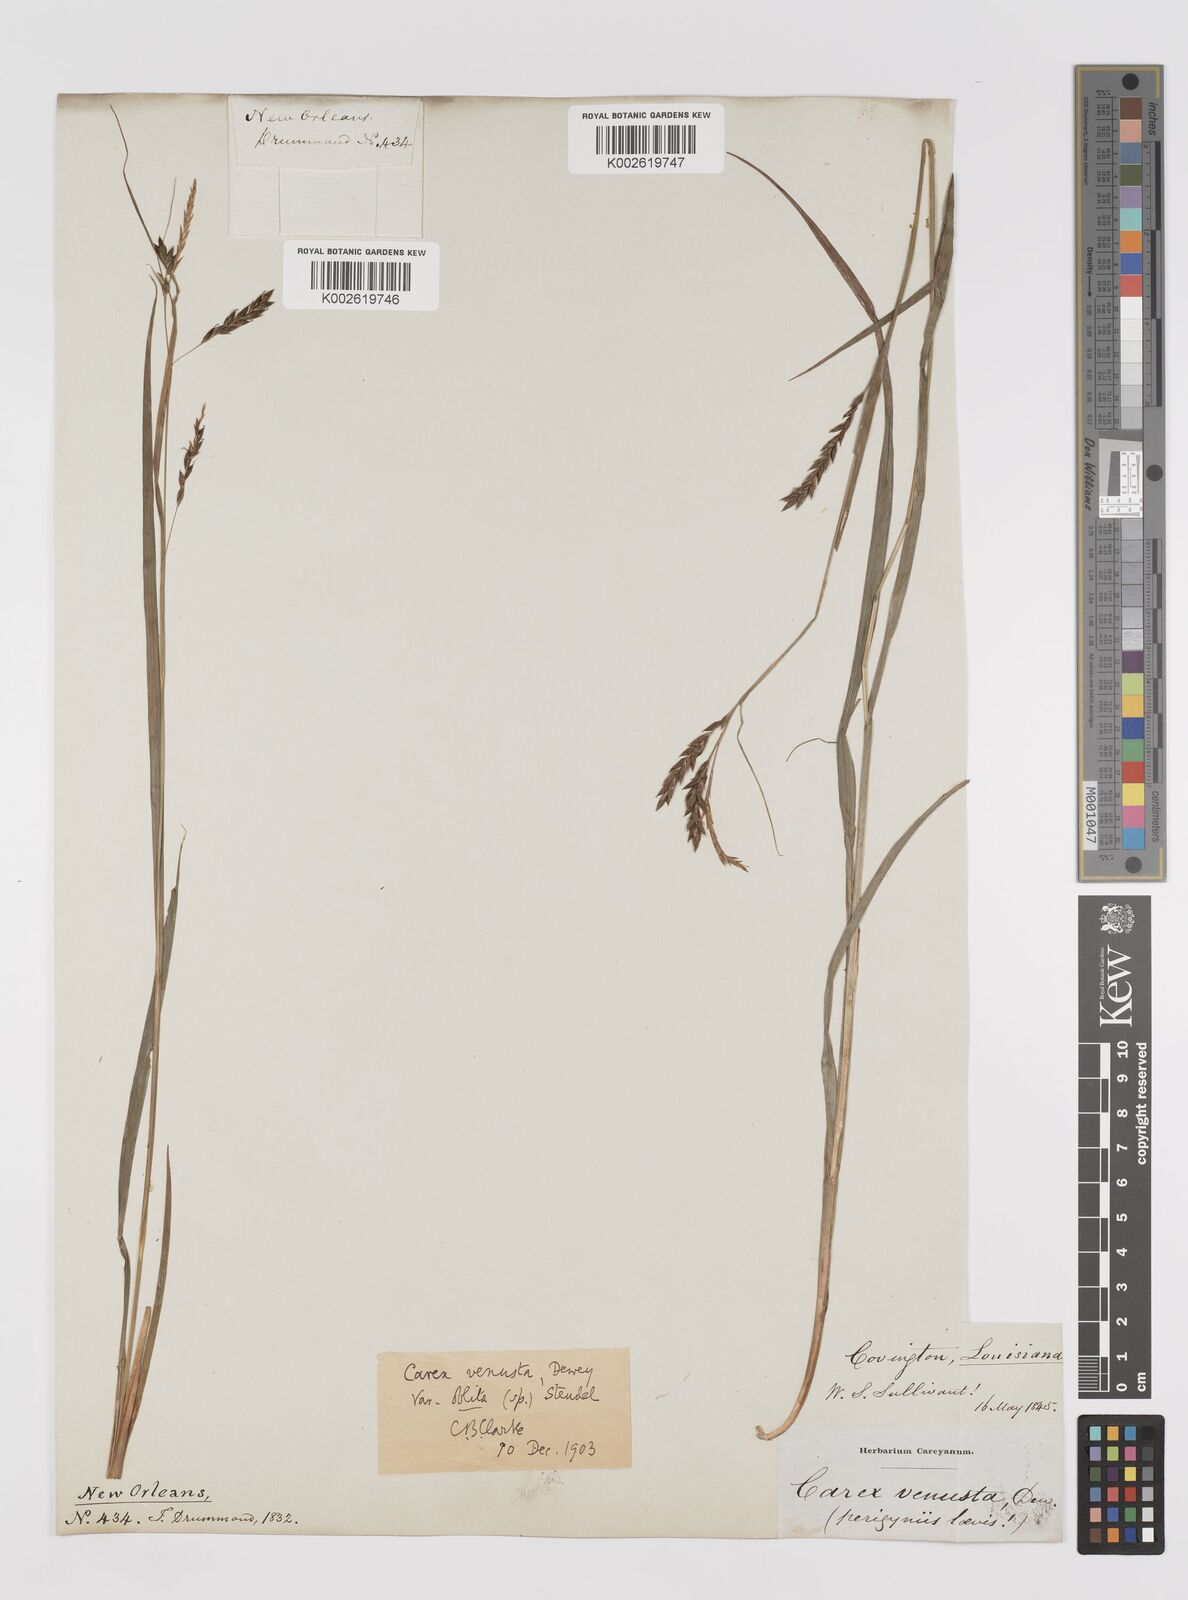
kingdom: Plantae
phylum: Tracheophyta
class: Liliopsida
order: Poales
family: Cyperaceae
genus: Carex
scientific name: Carex venusta
